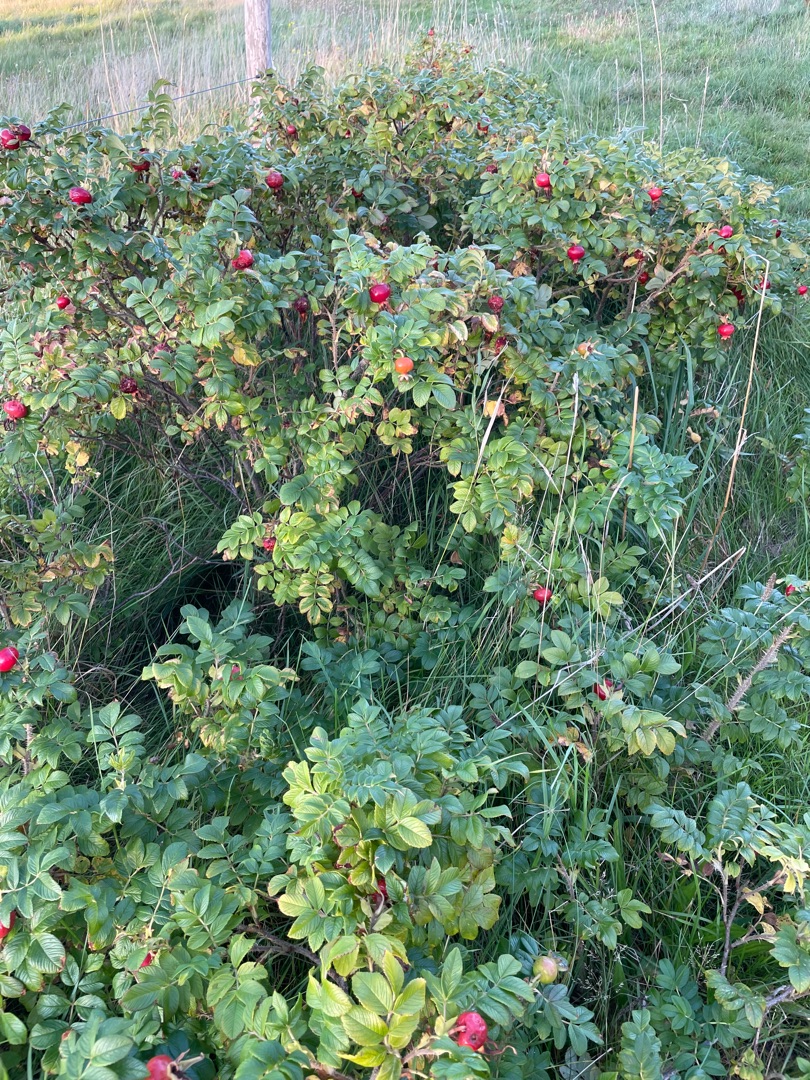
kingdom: Plantae
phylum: Tracheophyta
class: Magnoliopsida
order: Rosales
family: Rosaceae
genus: Rosa
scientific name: Rosa rugosa
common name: Rynket rose
